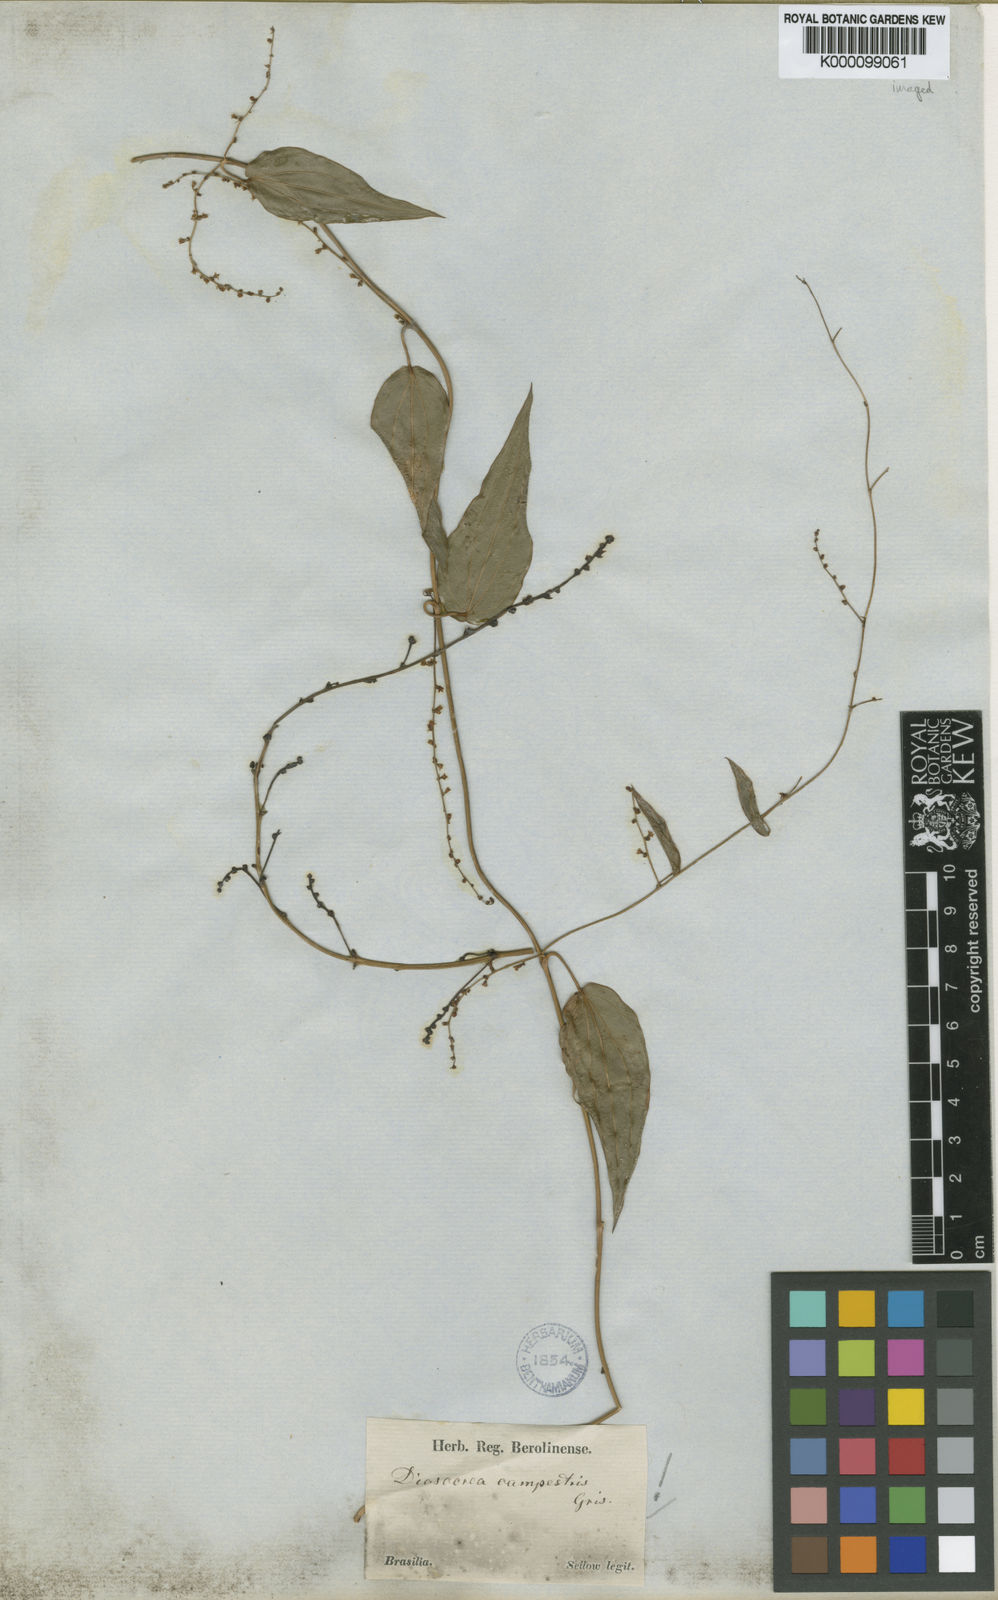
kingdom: Plantae
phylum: Tracheophyta
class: Liliopsida
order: Dioscoreales
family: Dioscoreaceae
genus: Dioscorea
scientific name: Dioscorea campestris
